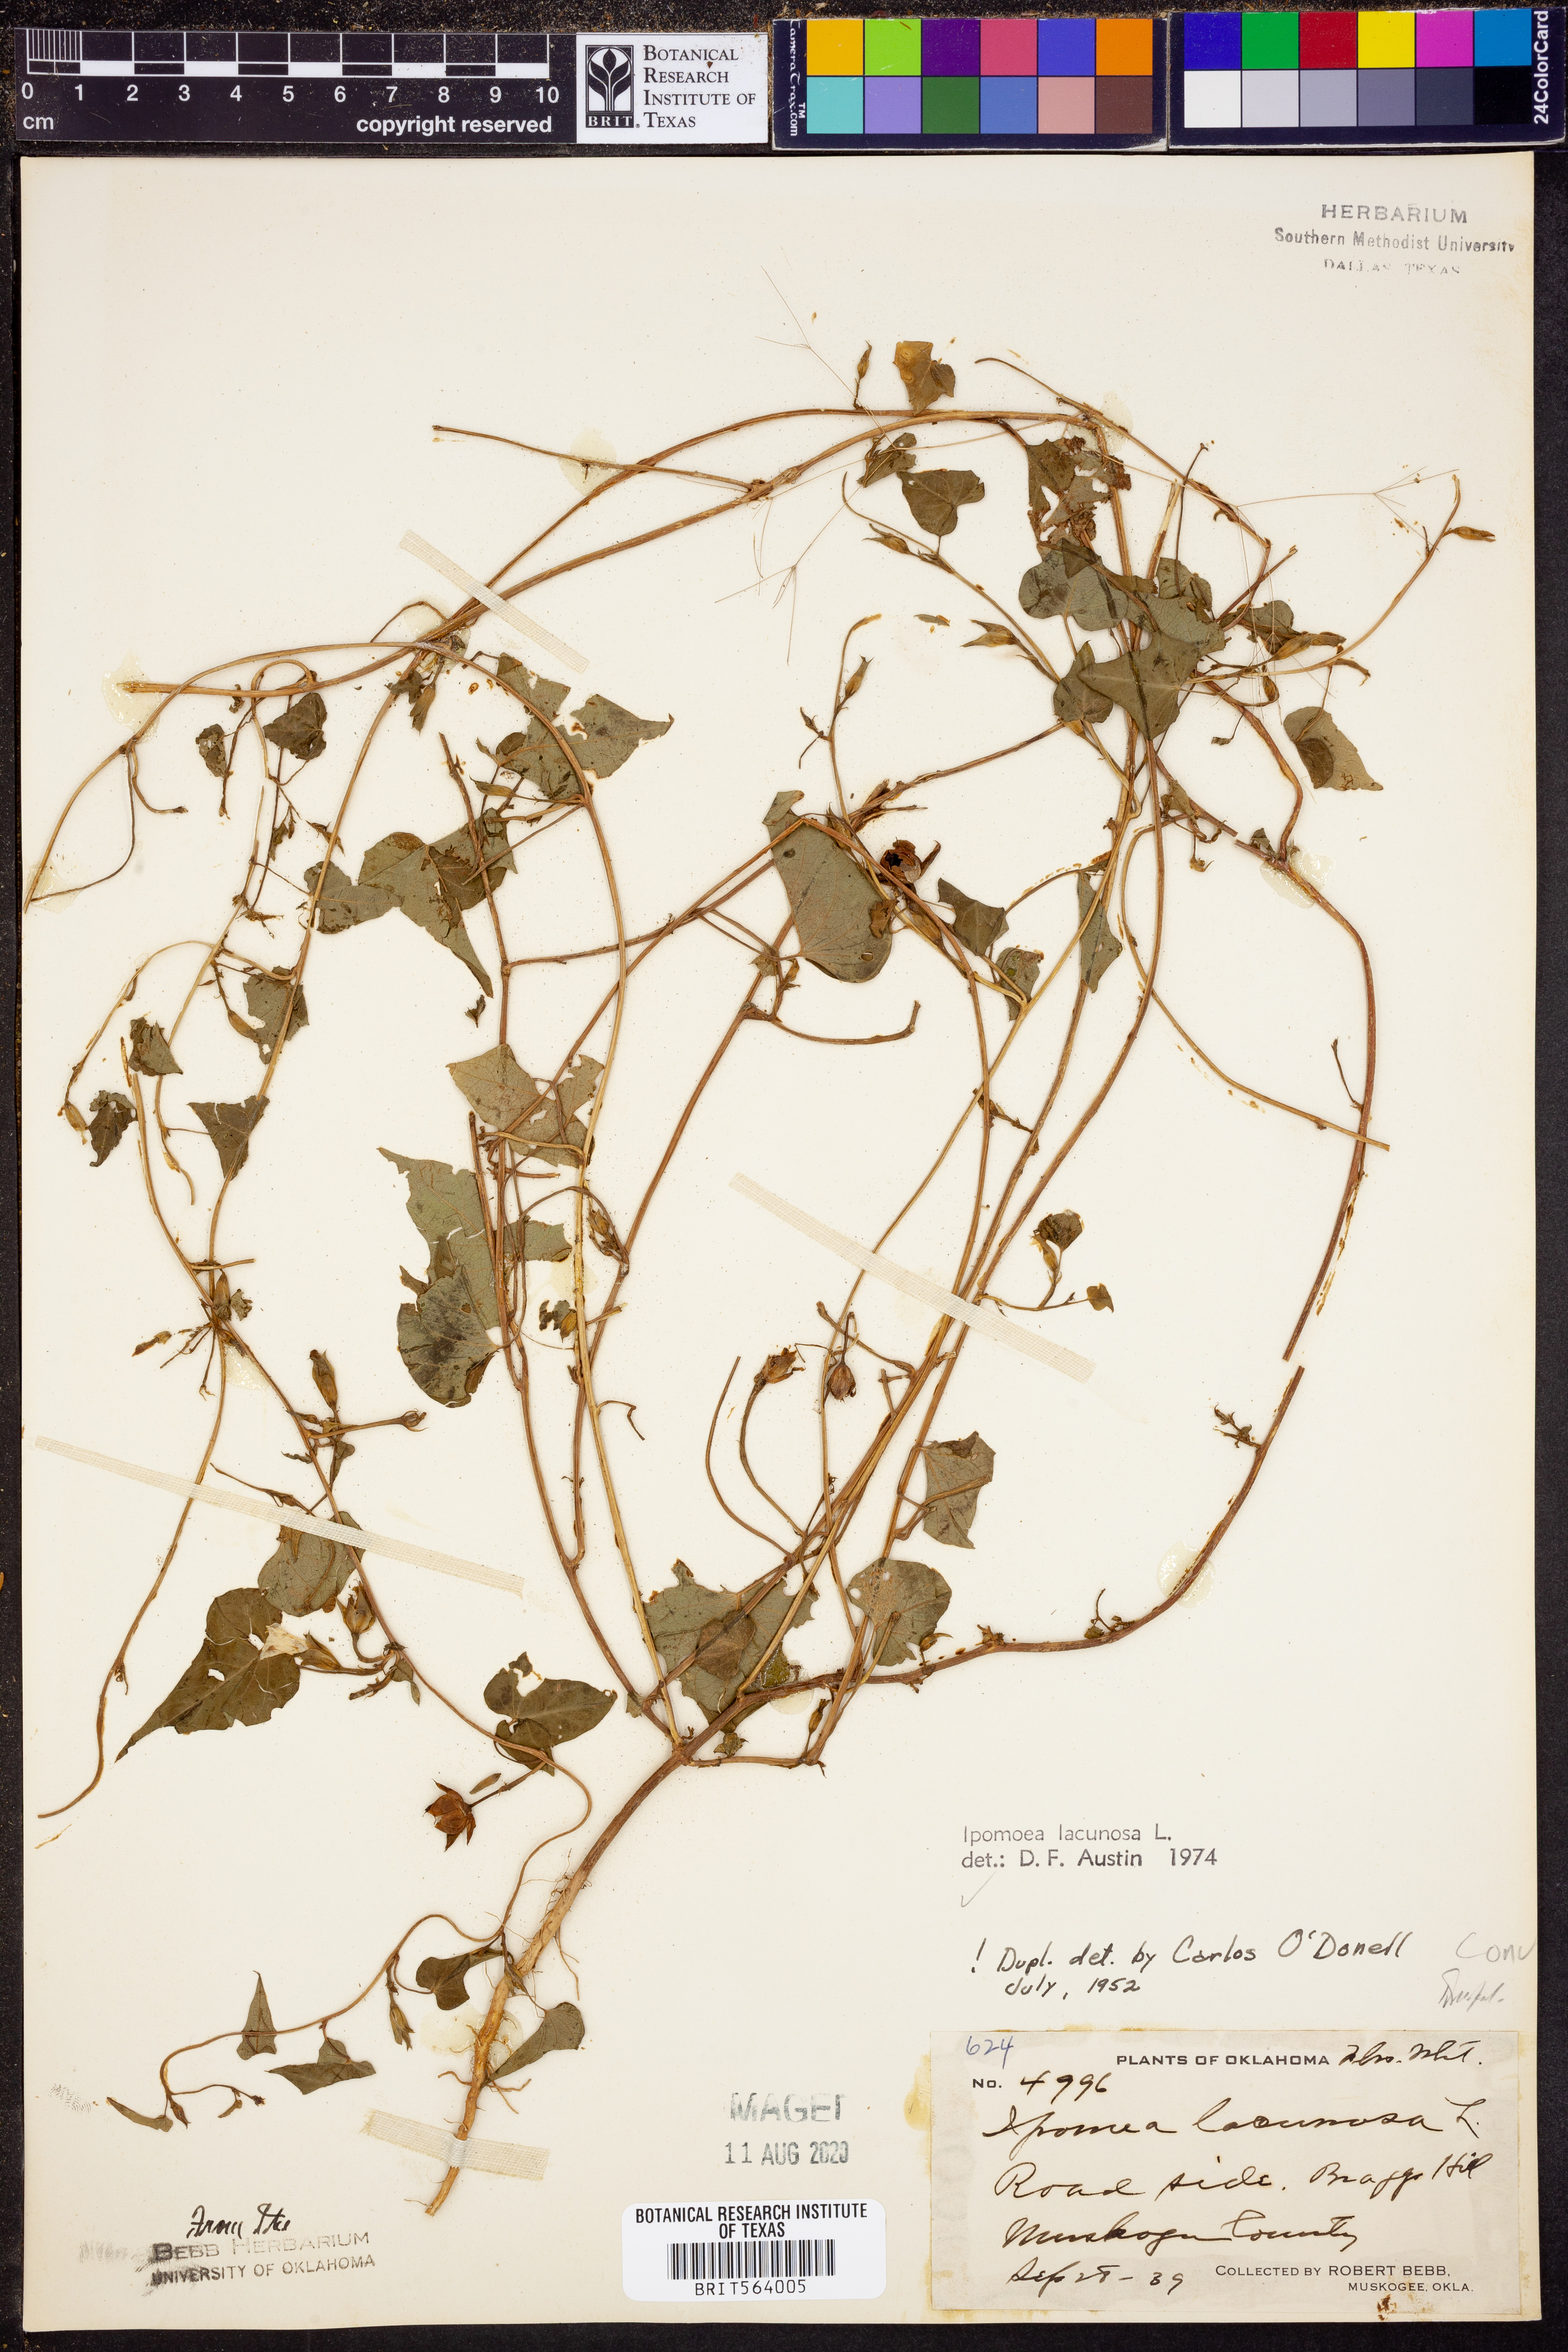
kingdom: Plantae
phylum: Tracheophyta
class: Magnoliopsida
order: Solanales
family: Convolvulaceae
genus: Ipomoea
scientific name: Ipomoea lacunosa
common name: White morning-glory
